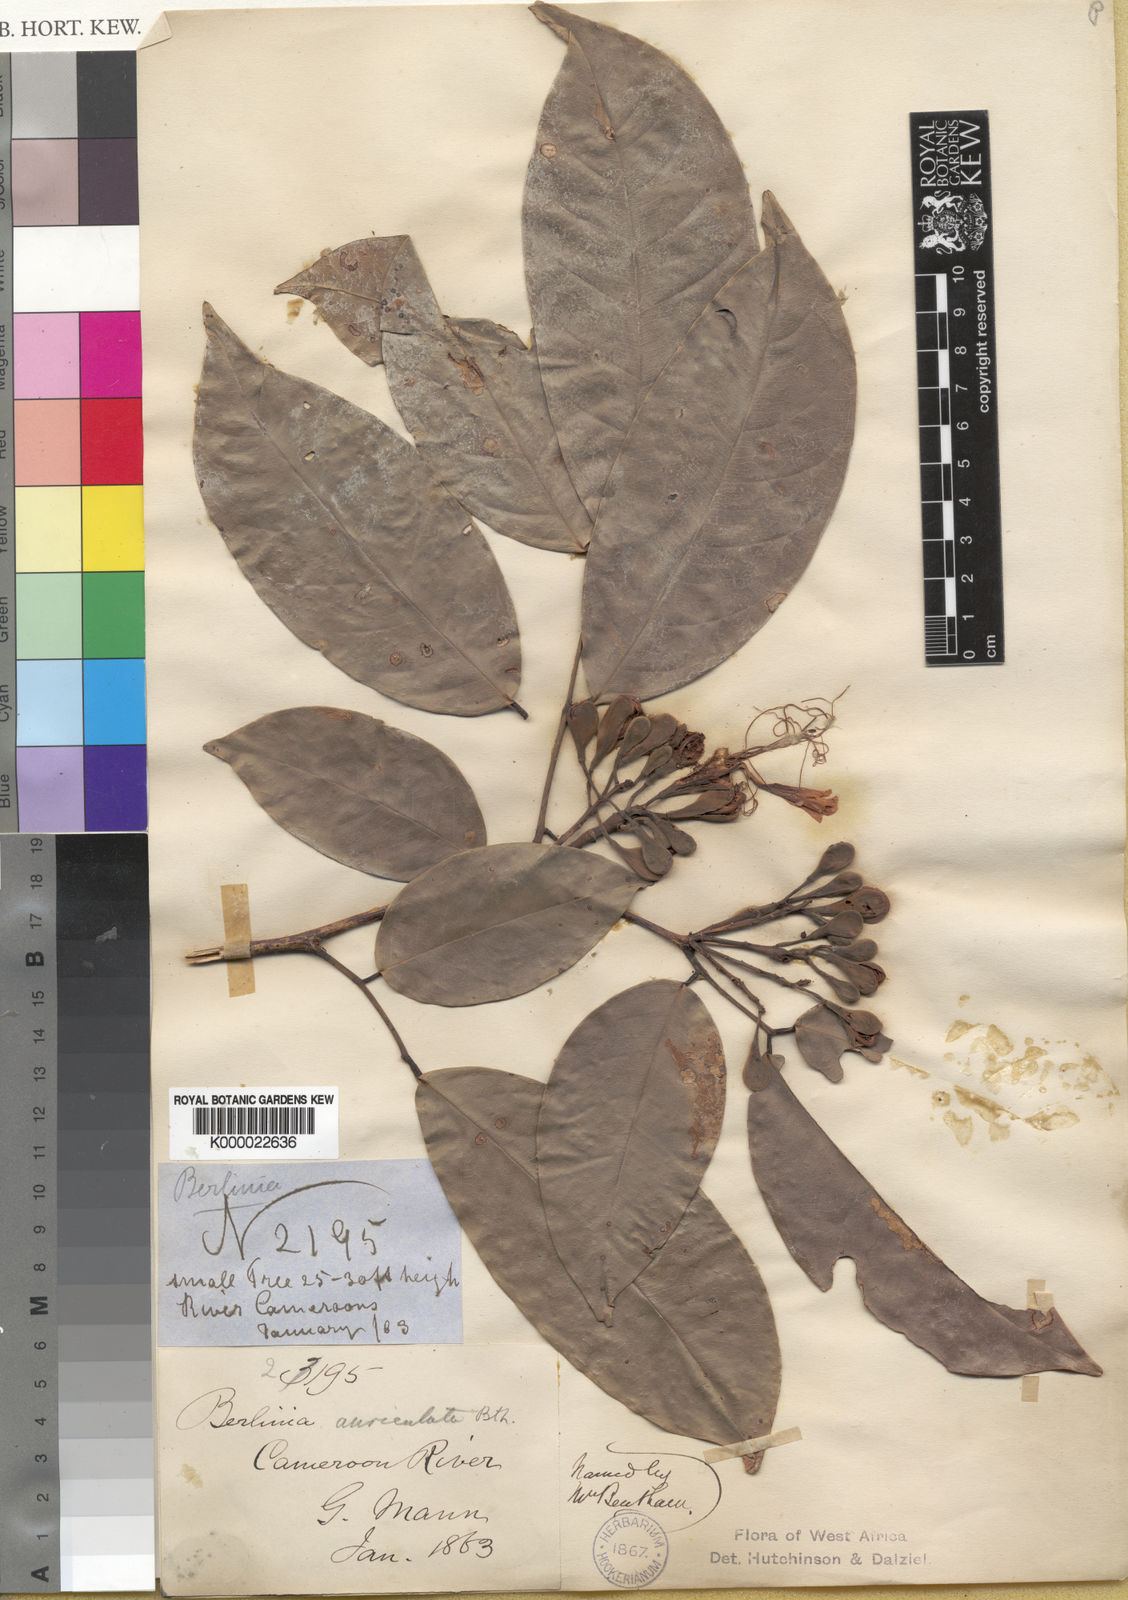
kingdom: Plantae
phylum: Tracheophyta
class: Magnoliopsida
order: Fabales
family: Fabaceae
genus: Berlinia
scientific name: Berlinia auriculata
